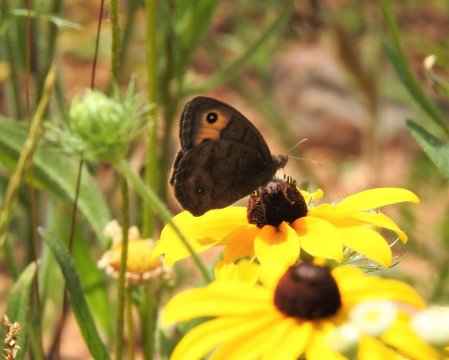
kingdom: Animalia
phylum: Arthropoda
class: Insecta
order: Lepidoptera
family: Nymphalidae
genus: Cercyonis
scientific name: Cercyonis pegala
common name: Common Wood-Nymph
